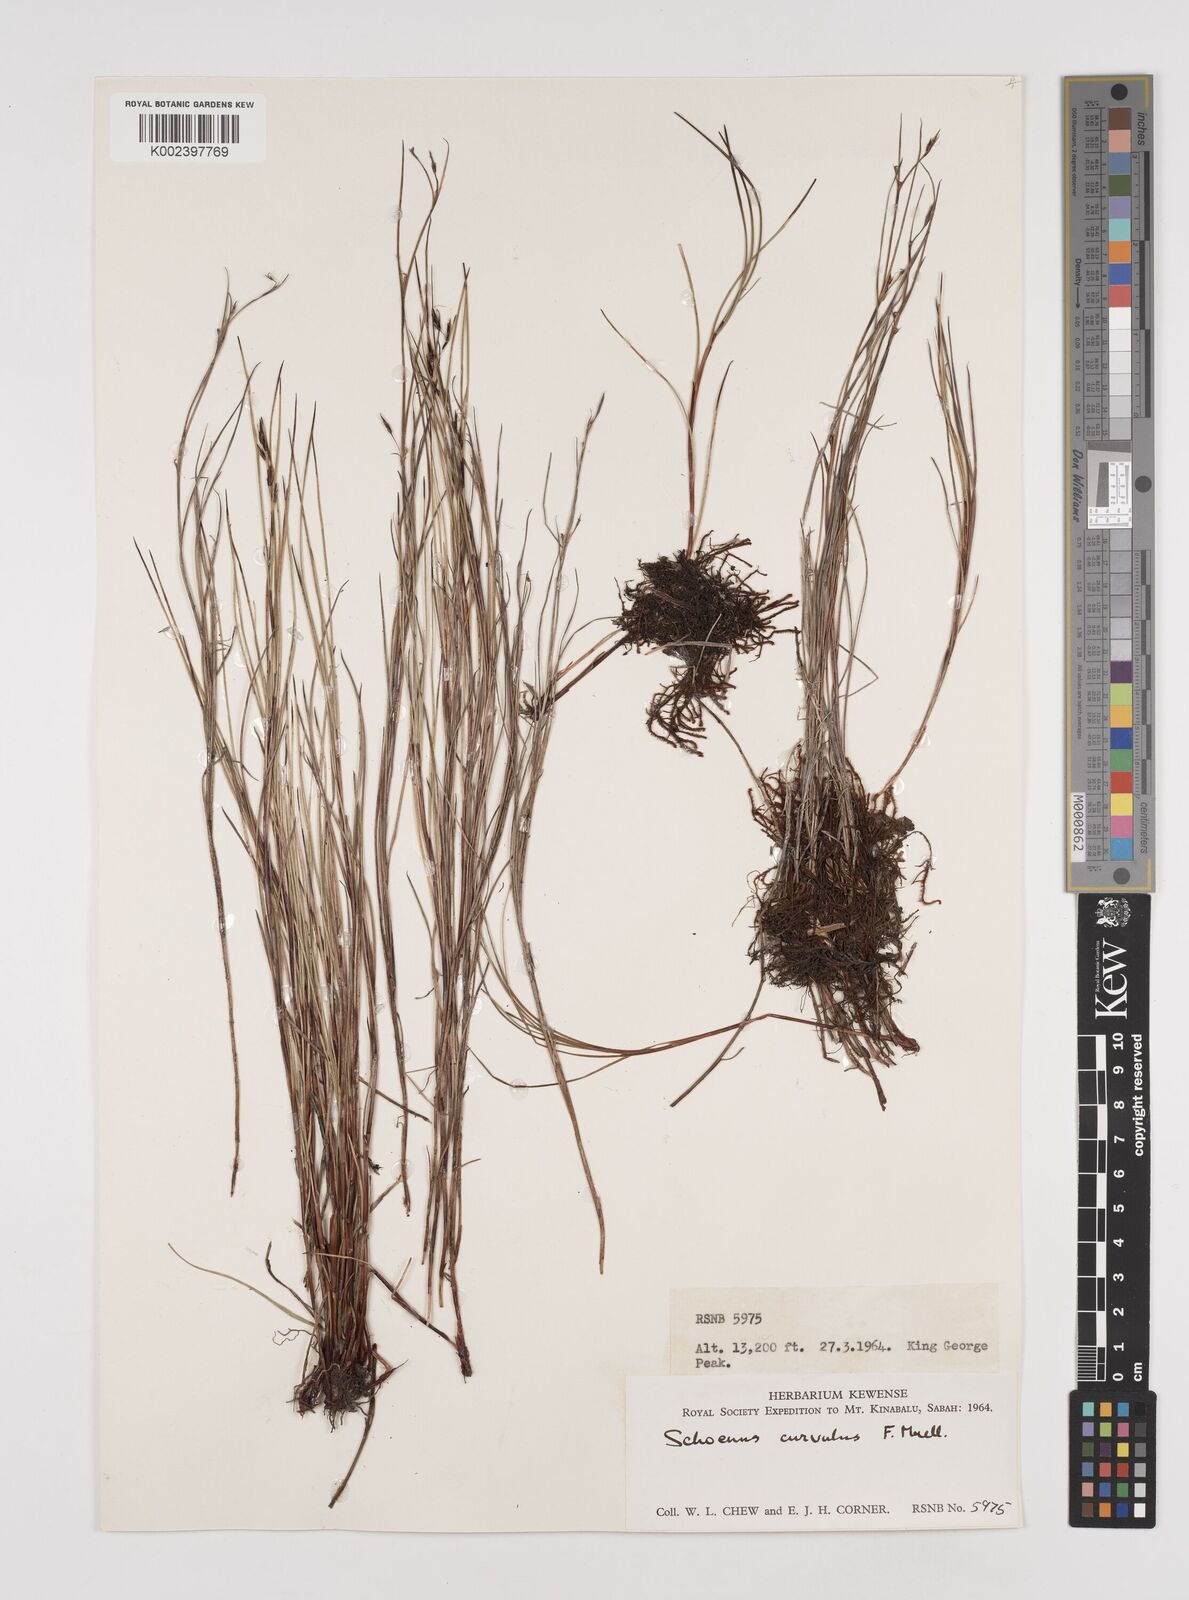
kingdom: Plantae
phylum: Tracheophyta
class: Liliopsida
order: Poales
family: Cyperaceae
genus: Schoenus
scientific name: Schoenus curvulus
